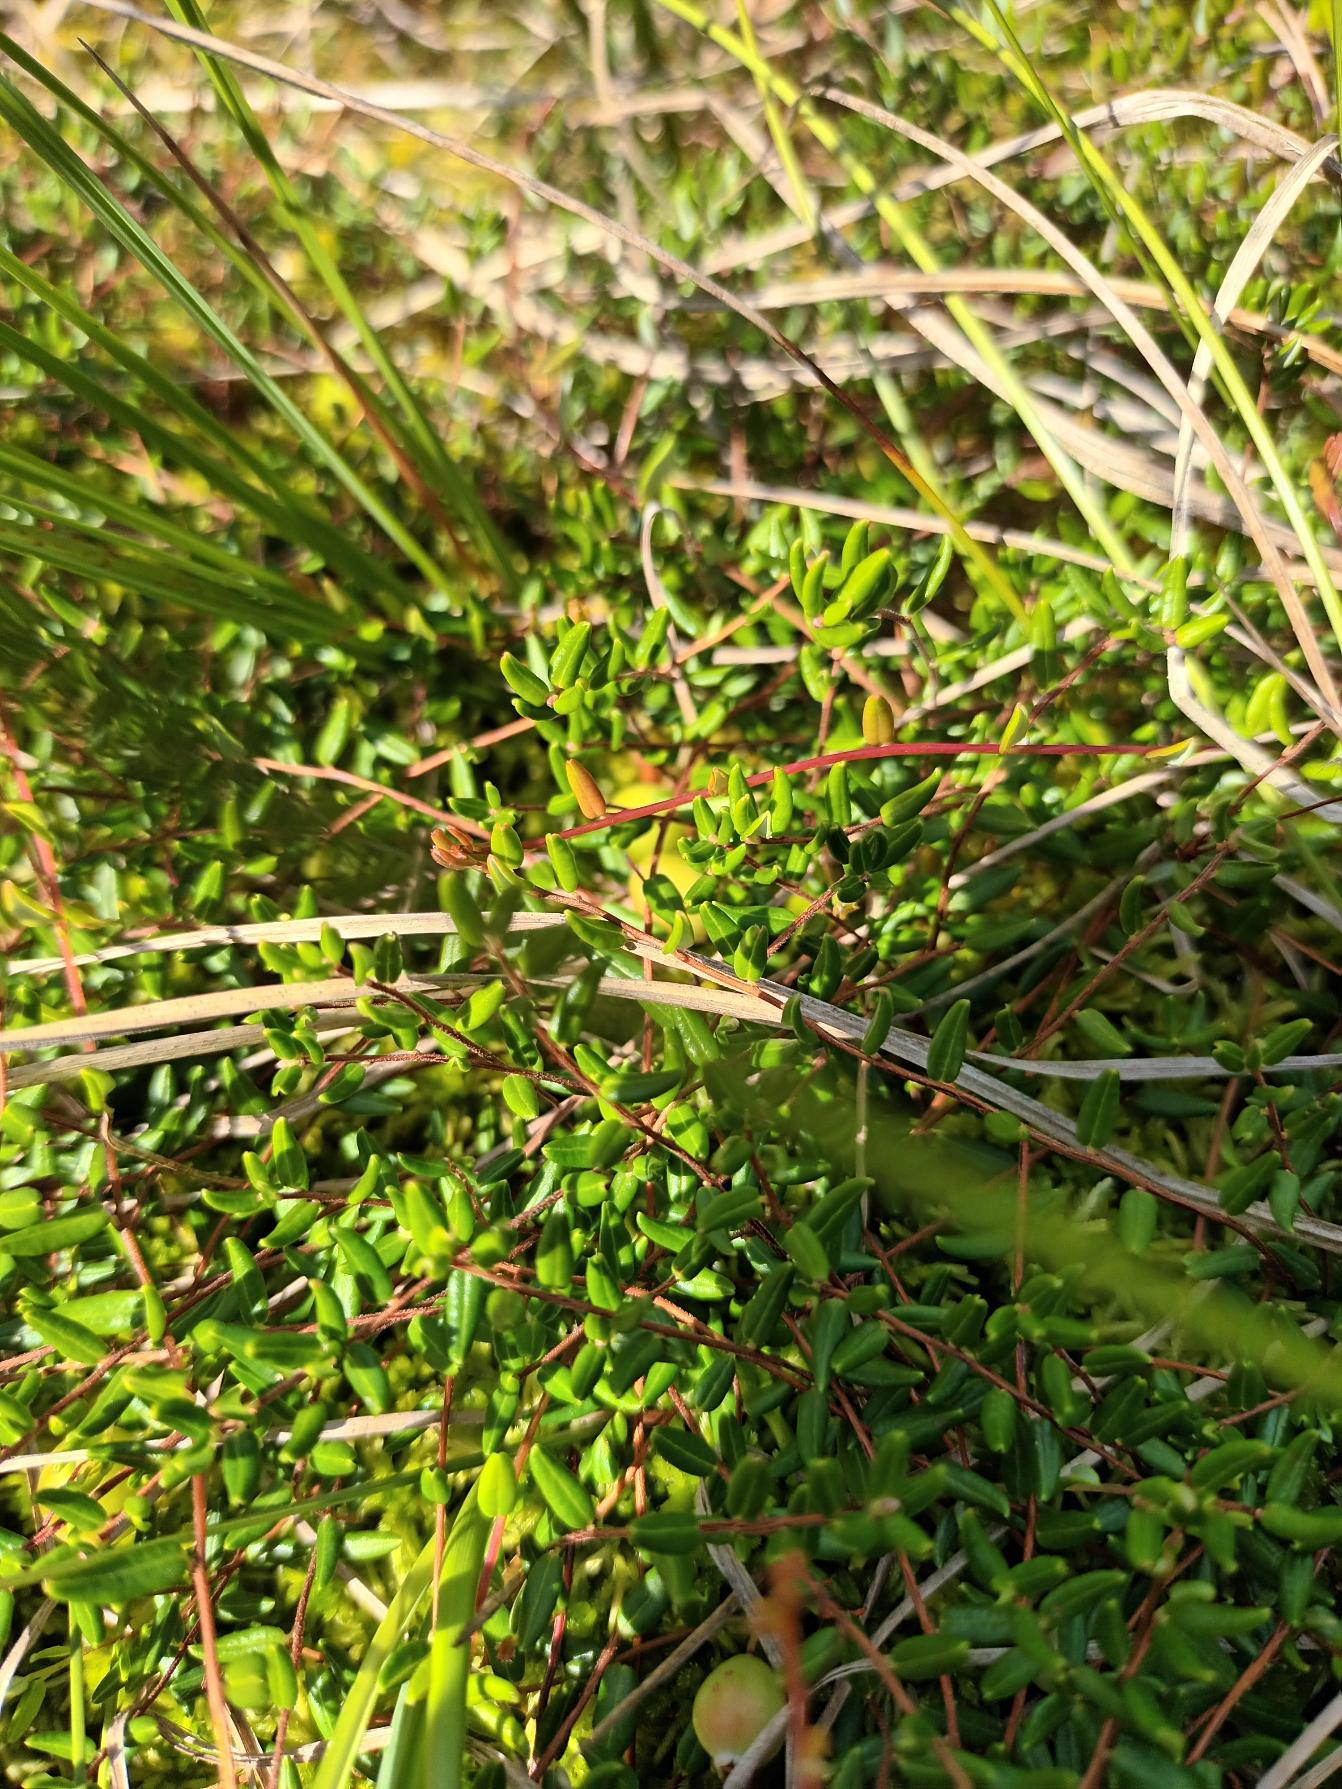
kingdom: Plantae
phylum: Tracheophyta
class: Magnoliopsida
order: Ericales
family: Ericaceae
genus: Vaccinium
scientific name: Vaccinium oxycoccos
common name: Tranebær
